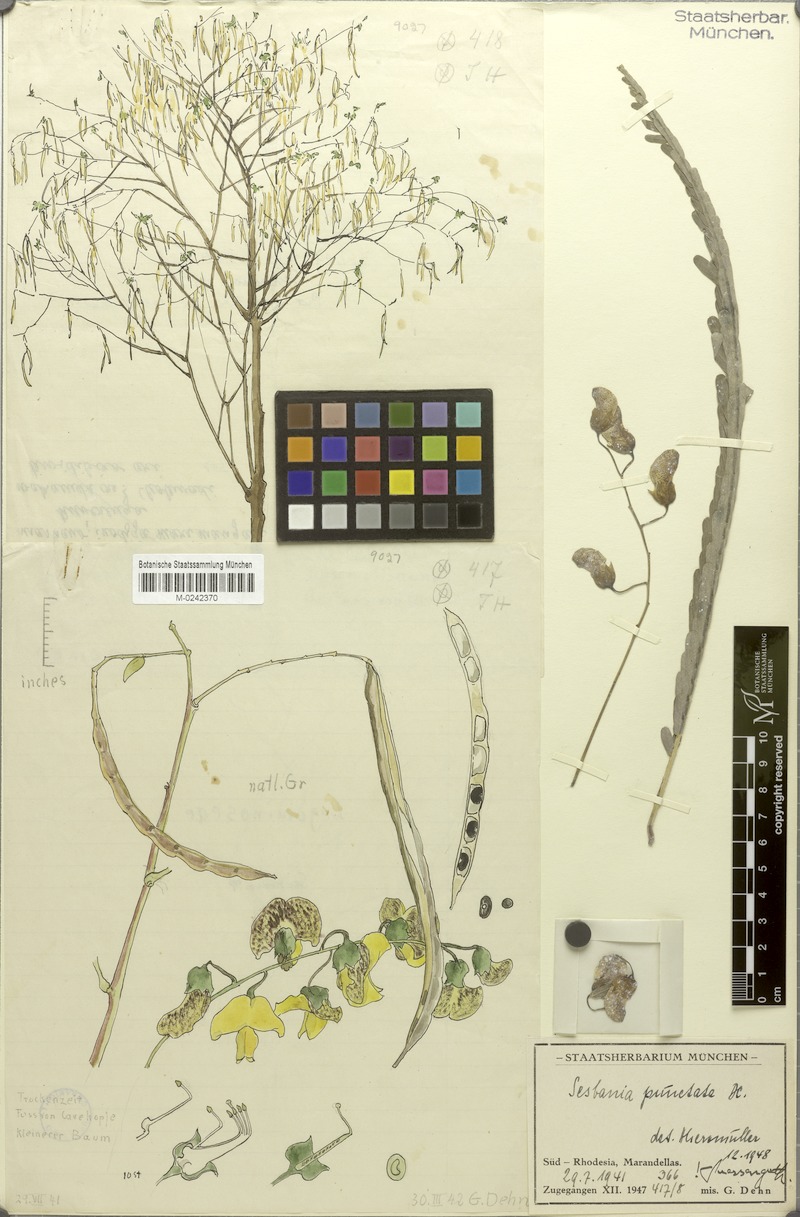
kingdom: Plantae
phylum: Tracheophyta
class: Magnoliopsida
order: Fabales
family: Fabaceae
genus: Sesbania
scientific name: Sesbania macrantha
